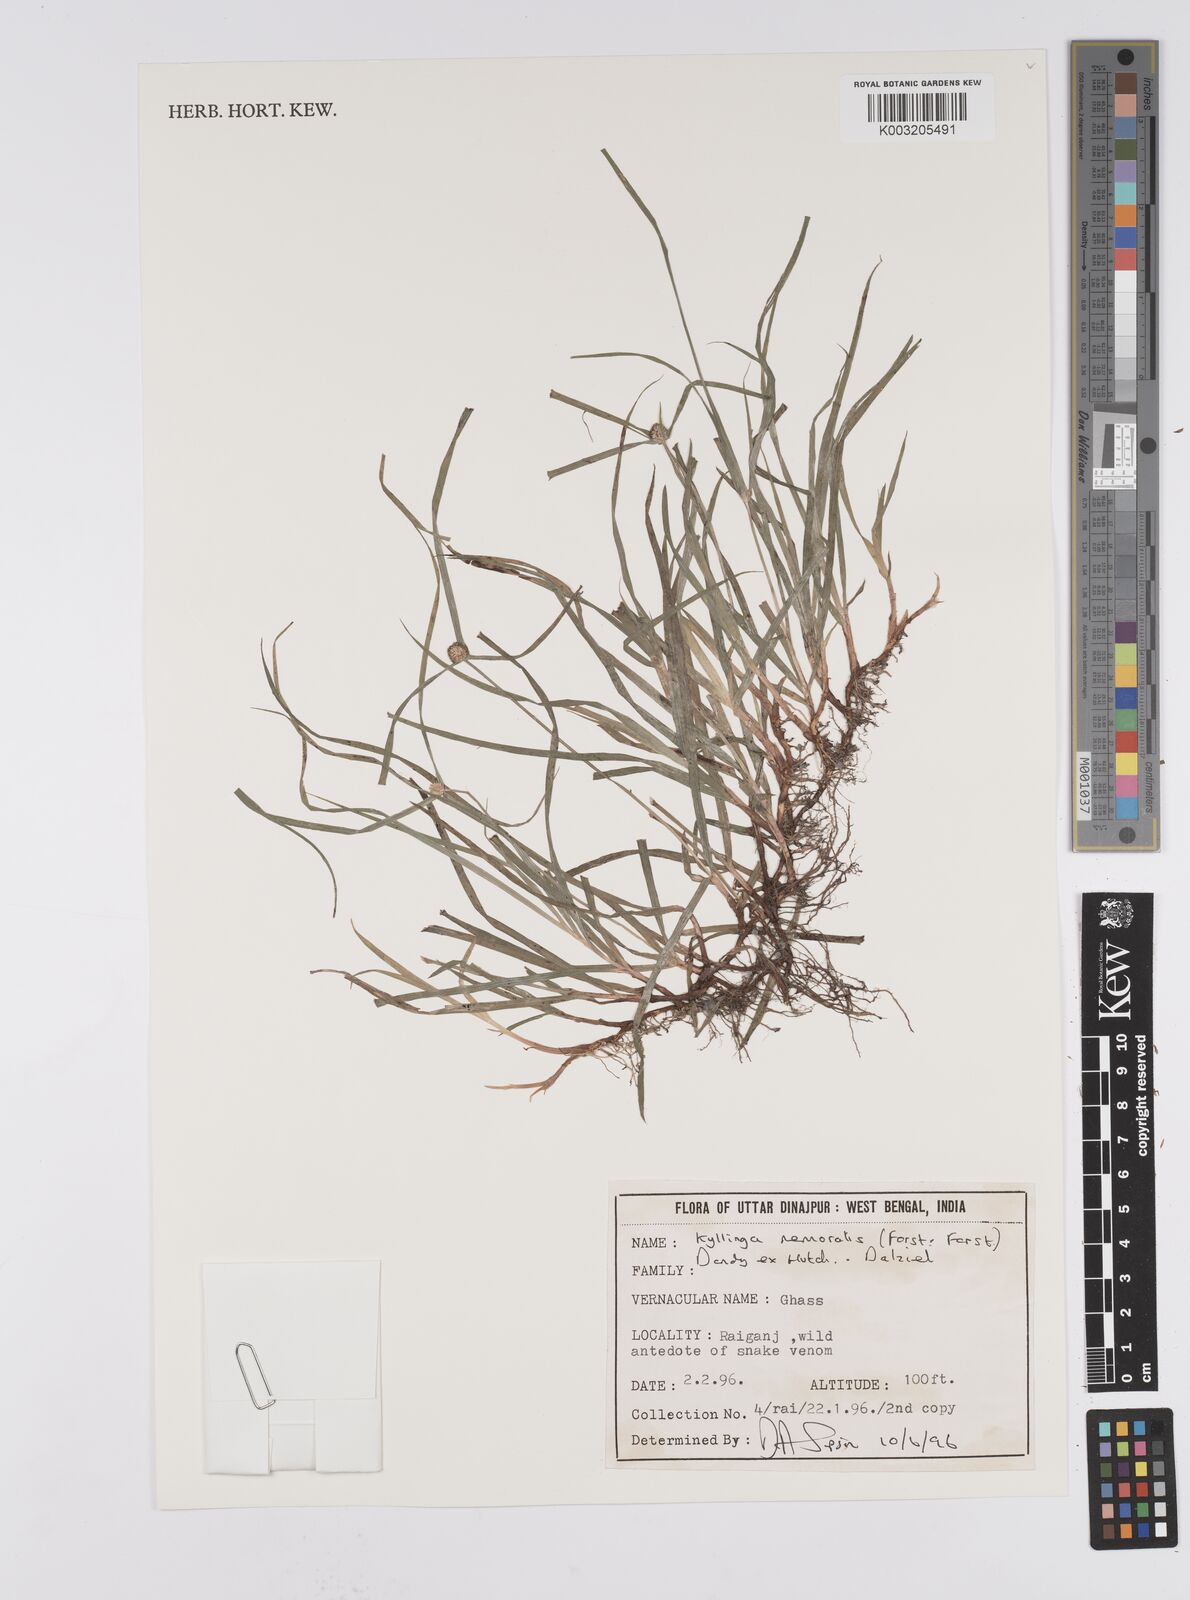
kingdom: Plantae
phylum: Tracheophyta
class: Liliopsida
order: Poales
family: Cyperaceae
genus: Cyperus
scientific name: Cyperus nemoralis
